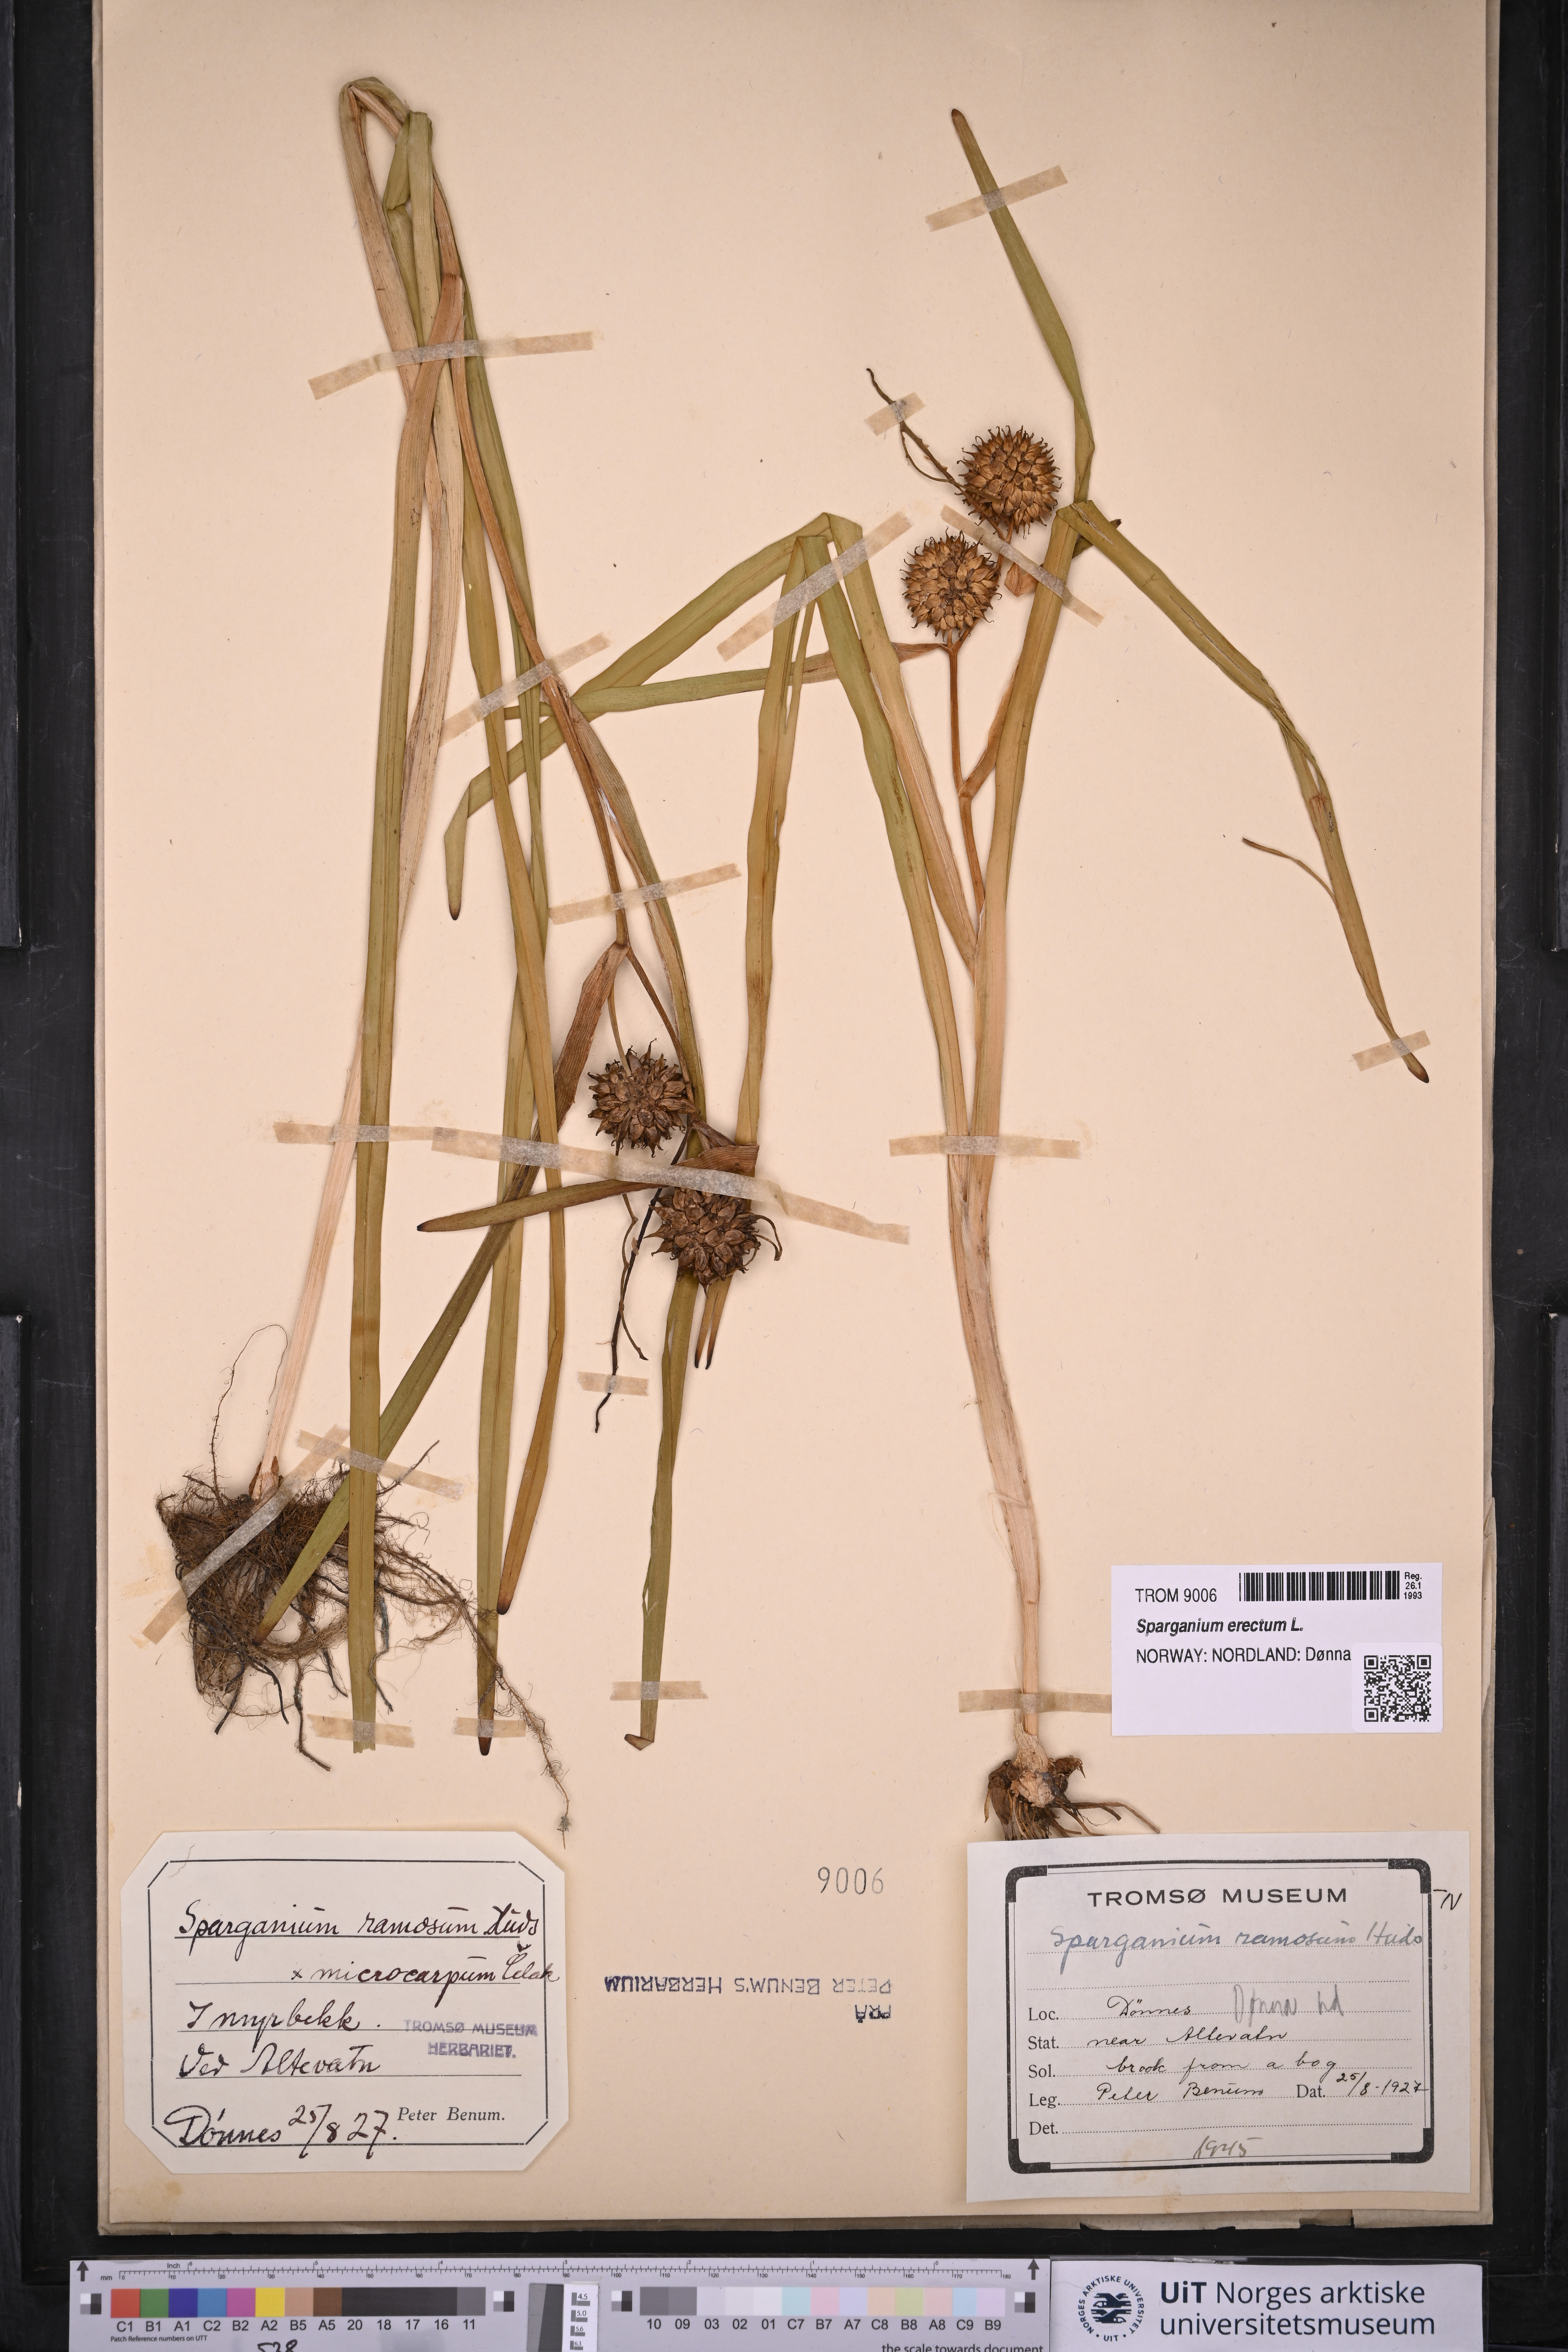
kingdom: Plantae
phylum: Tracheophyta
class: Liliopsida
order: Poales
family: Typhaceae
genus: Sparganium
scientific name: Sparganium erectum
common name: Branched bur-reed
